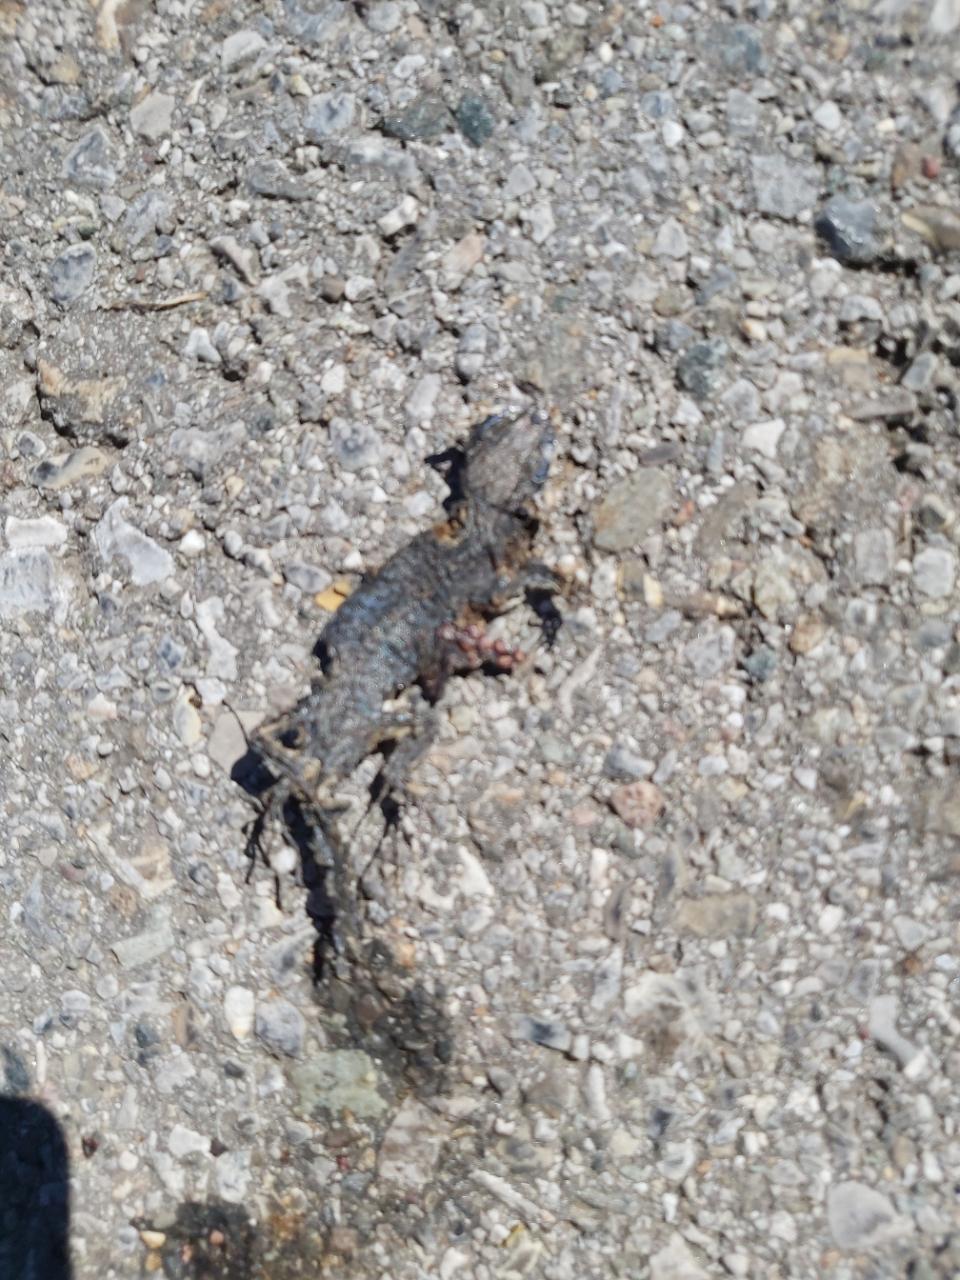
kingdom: Animalia
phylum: Chordata
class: Squamata
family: Lacertidae
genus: Podarcis
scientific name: Podarcis muralis
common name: Common wall lizard
